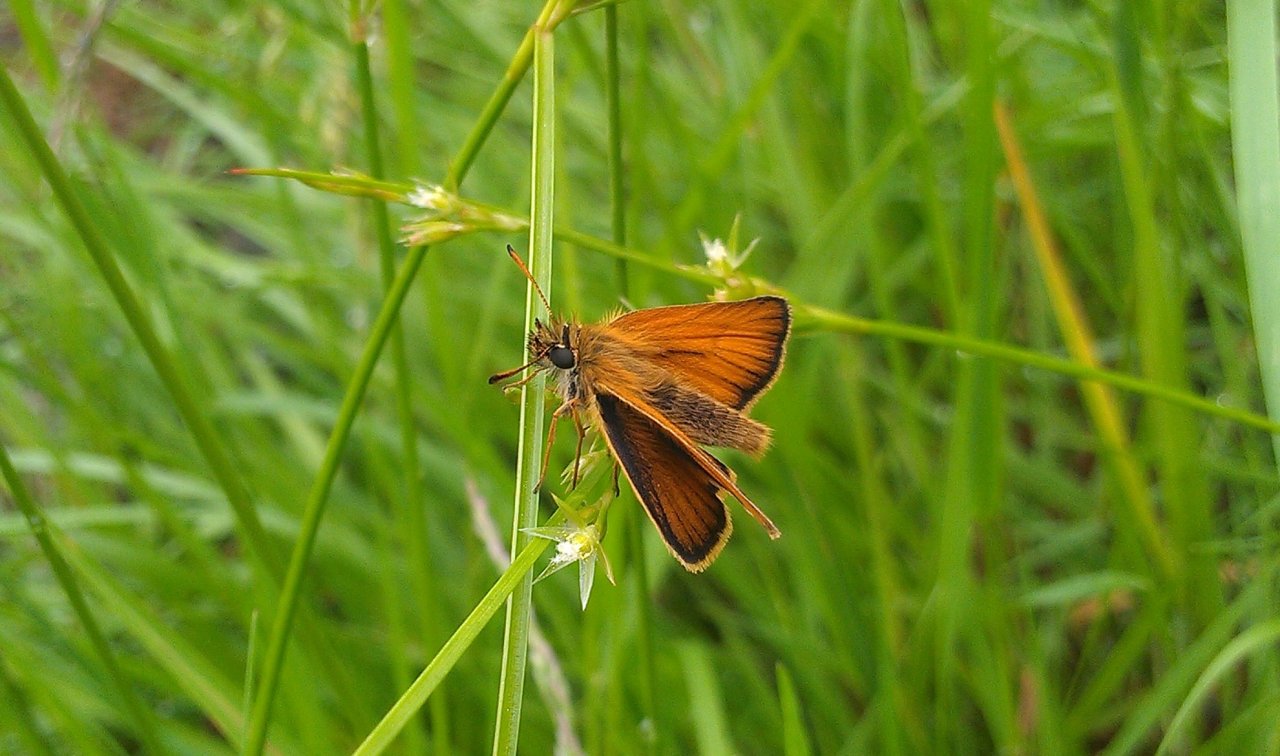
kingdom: Animalia
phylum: Arthropoda
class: Insecta
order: Lepidoptera
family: Hesperiidae
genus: Thymelicus
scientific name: Thymelicus lineola
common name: European Skipper
